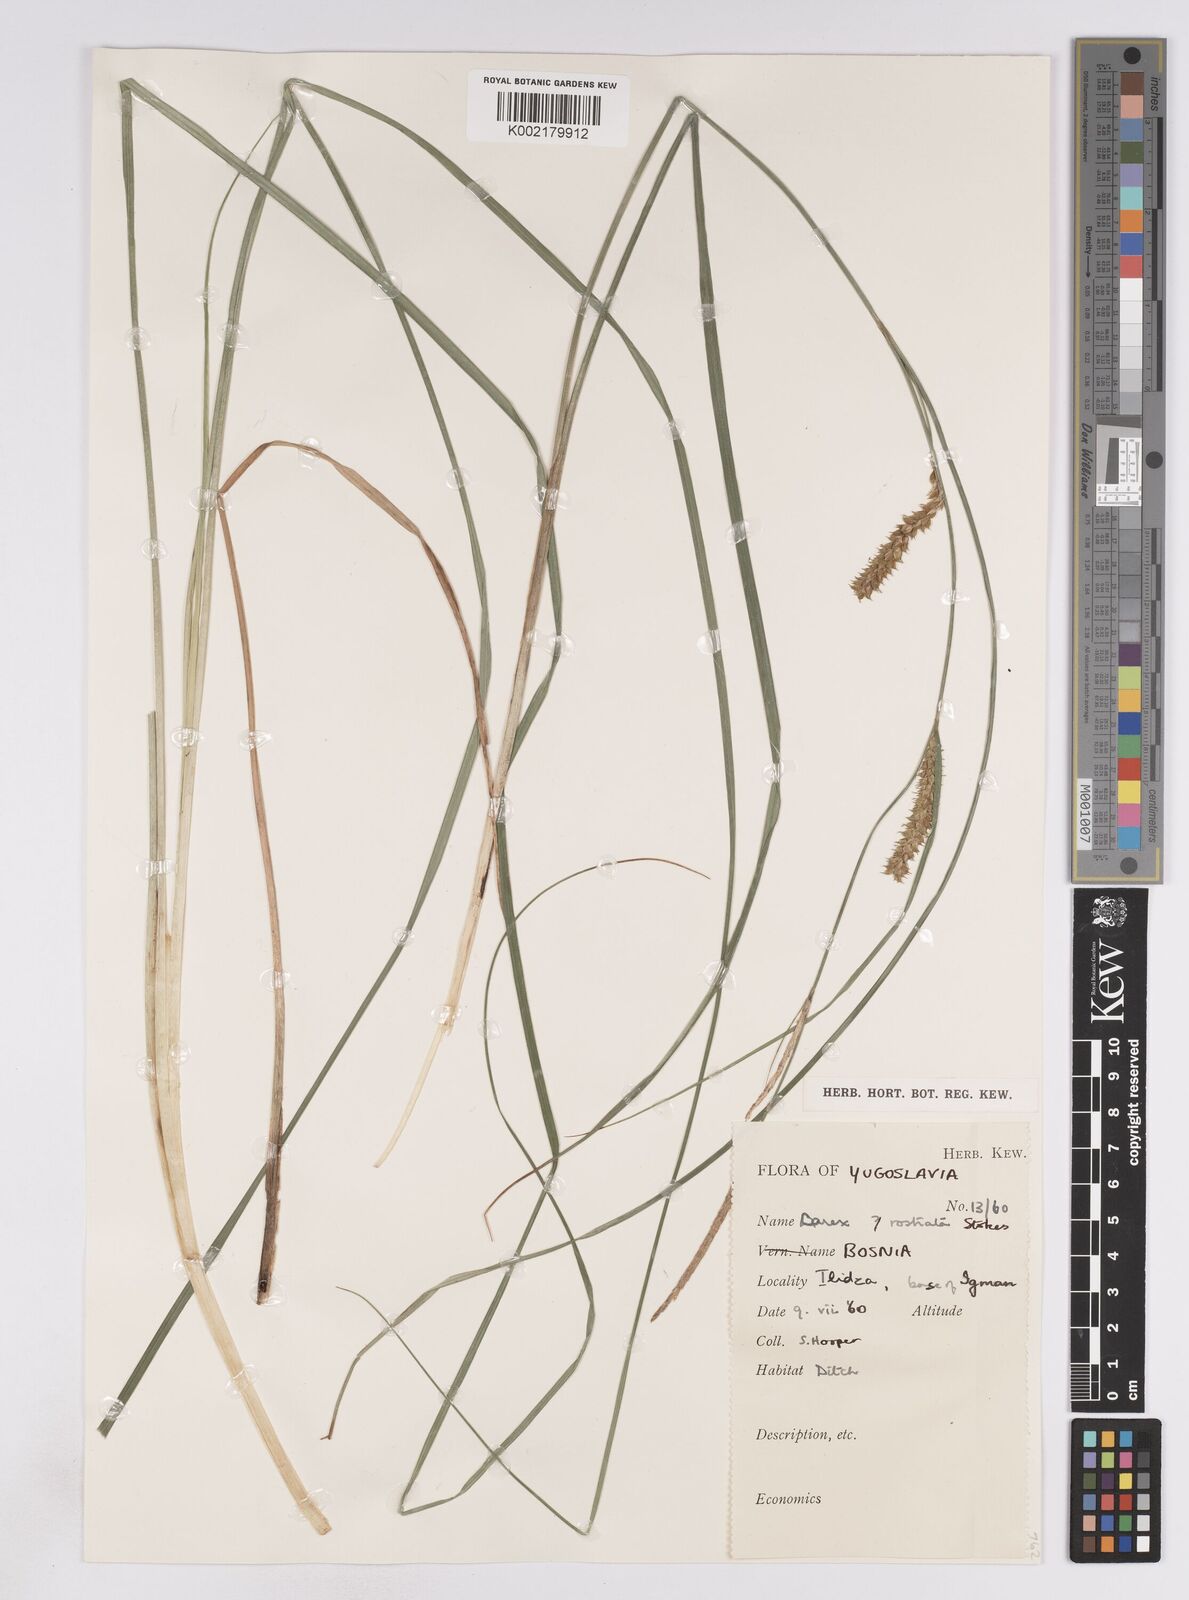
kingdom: Plantae
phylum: Tracheophyta
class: Liliopsida
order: Poales
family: Cyperaceae
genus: Carex
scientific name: Carex rostrata
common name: Bottle sedge
